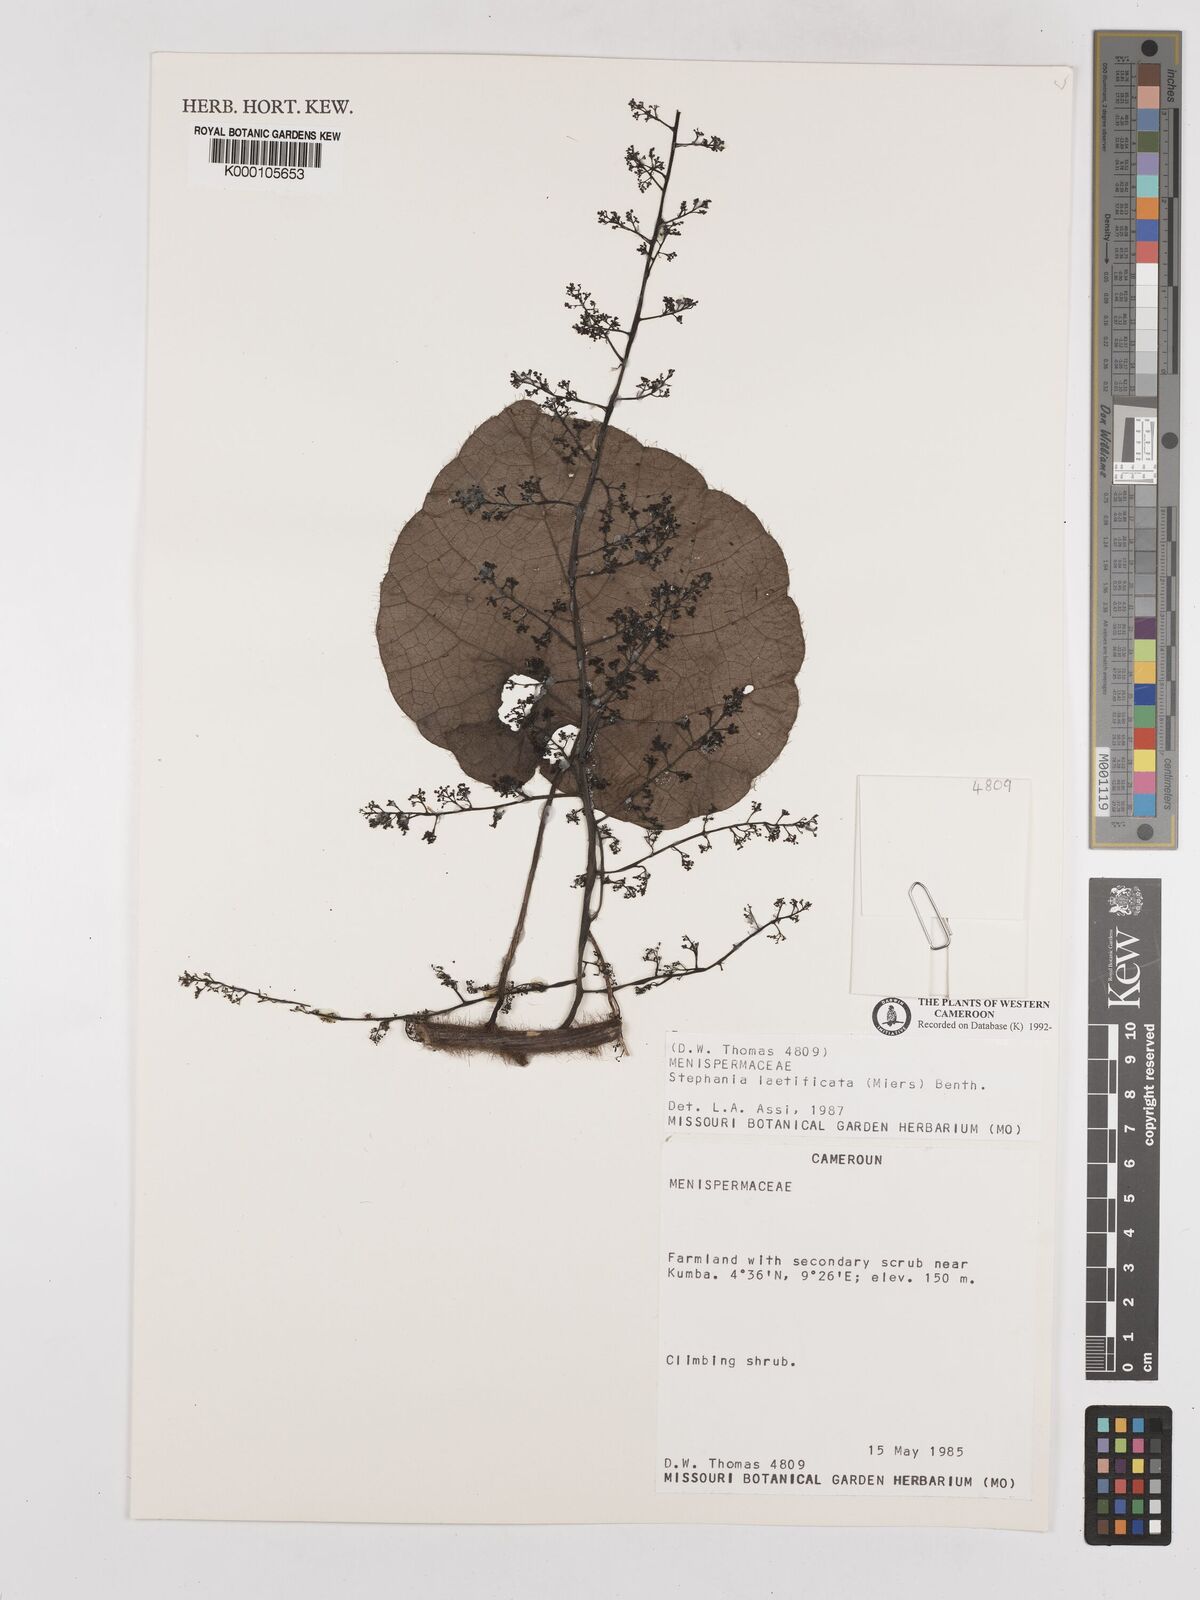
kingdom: Plantae
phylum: Tracheophyta
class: Magnoliopsida
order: Ranunculales
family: Menispermaceae
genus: Perichasma
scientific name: Perichasma laetificata
